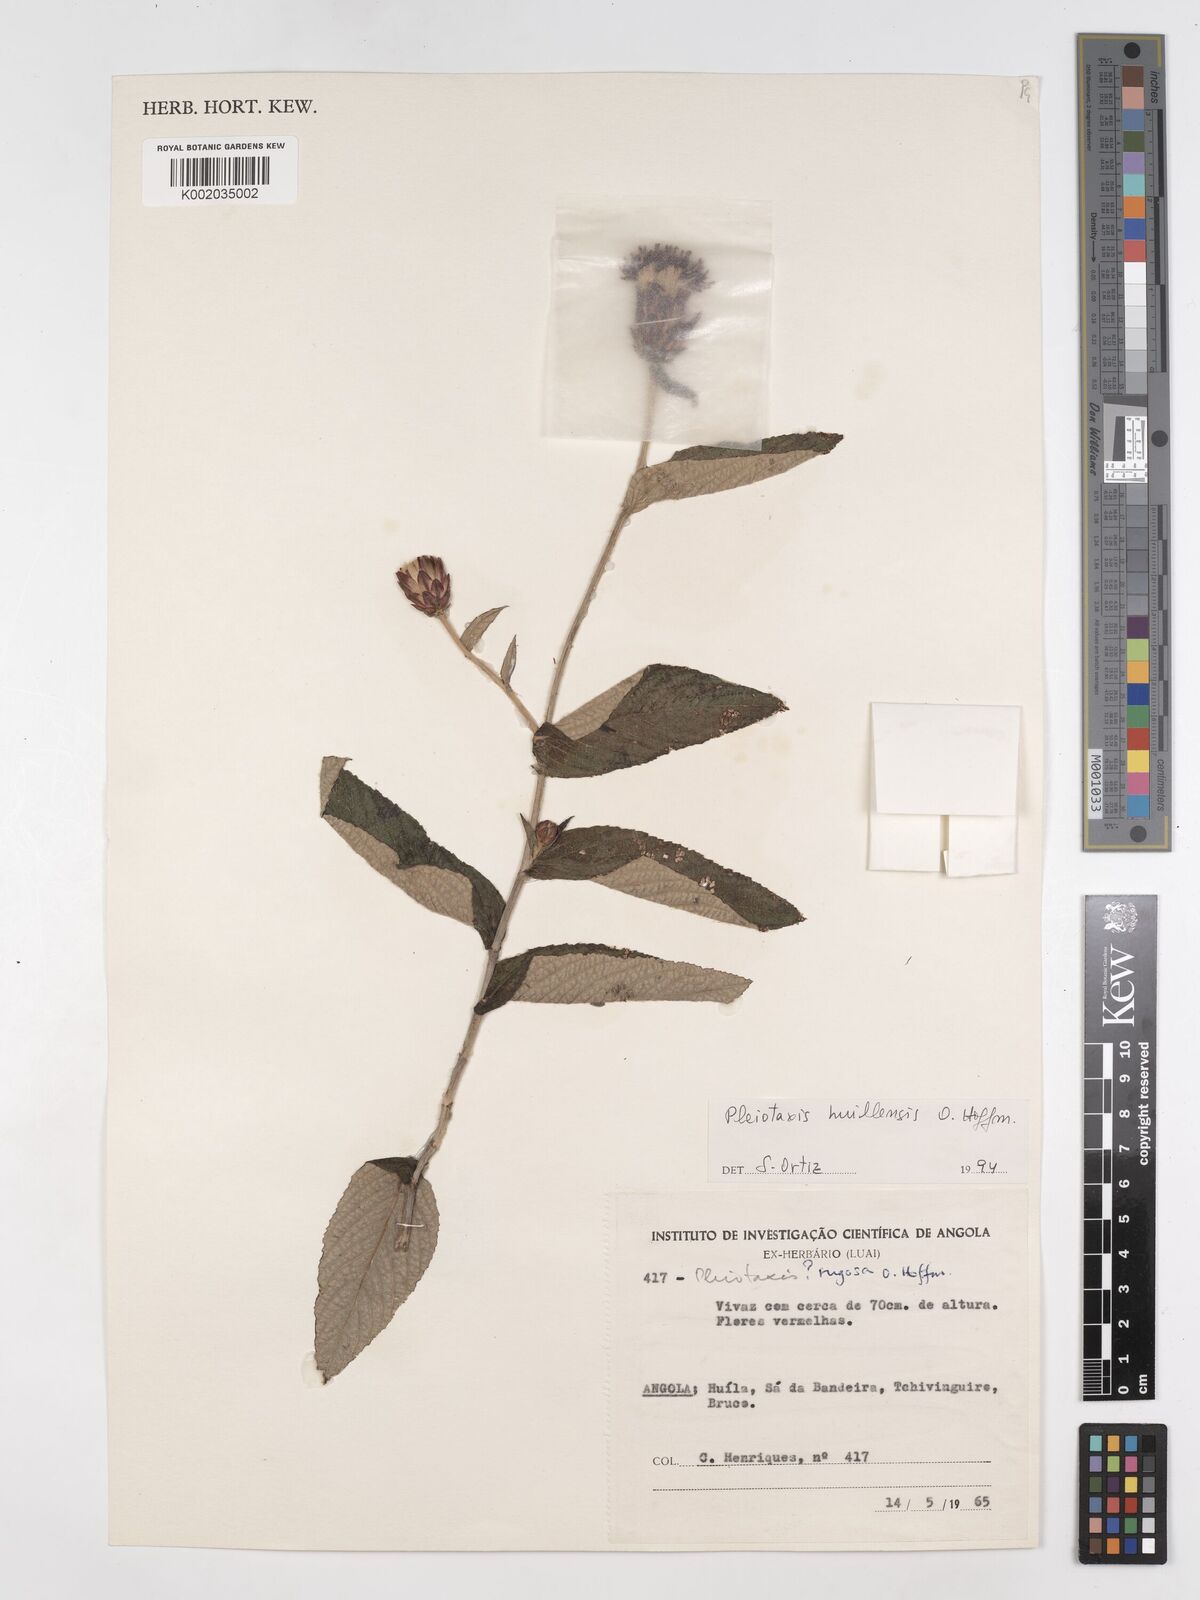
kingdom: Plantae
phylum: Tracheophyta
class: Magnoliopsida
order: Asterales
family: Asteraceae
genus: Pleiotaxis
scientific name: Pleiotaxis huillensis
